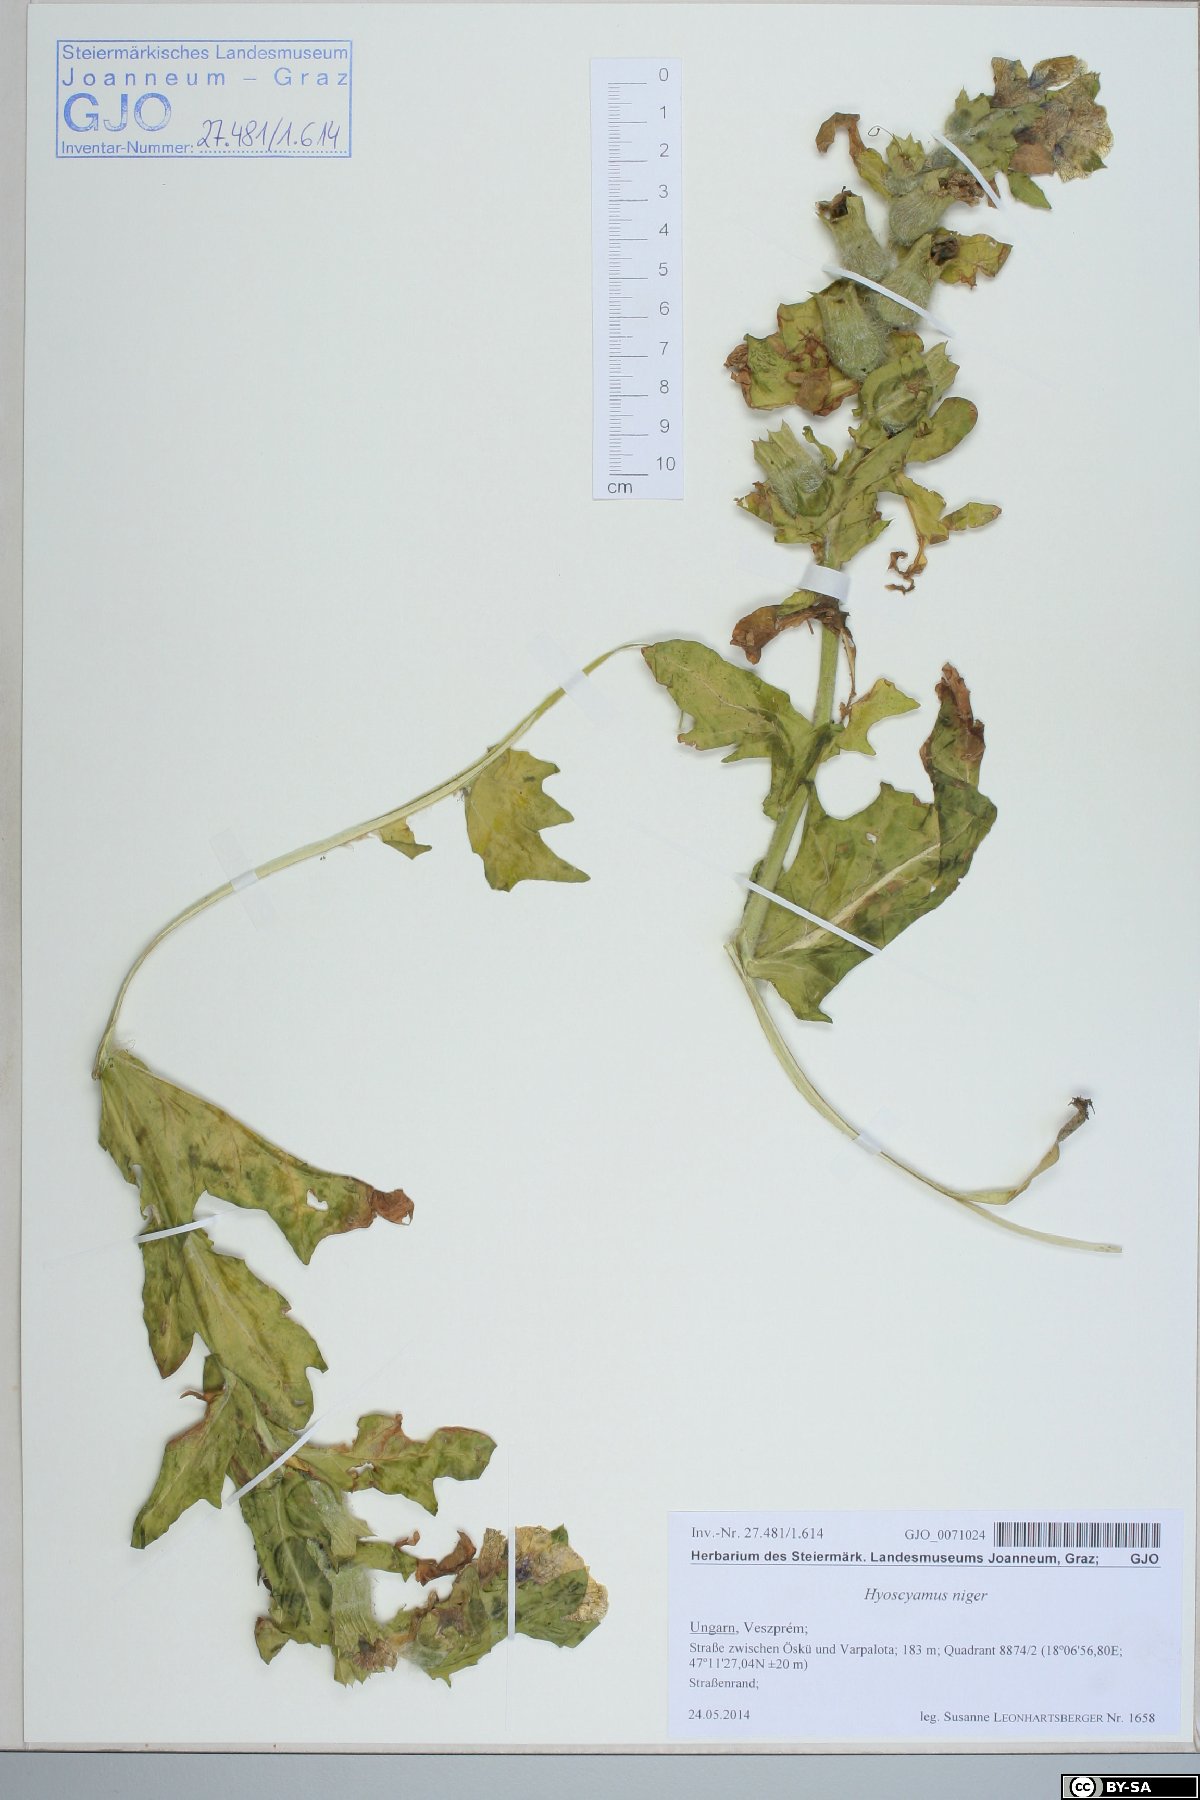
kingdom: Plantae
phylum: Tracheophyta
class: Magnoliopsida
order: Solanales
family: Solanaceae
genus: Hyoscyamus
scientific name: Hyoscyamus niger
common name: Henbane
